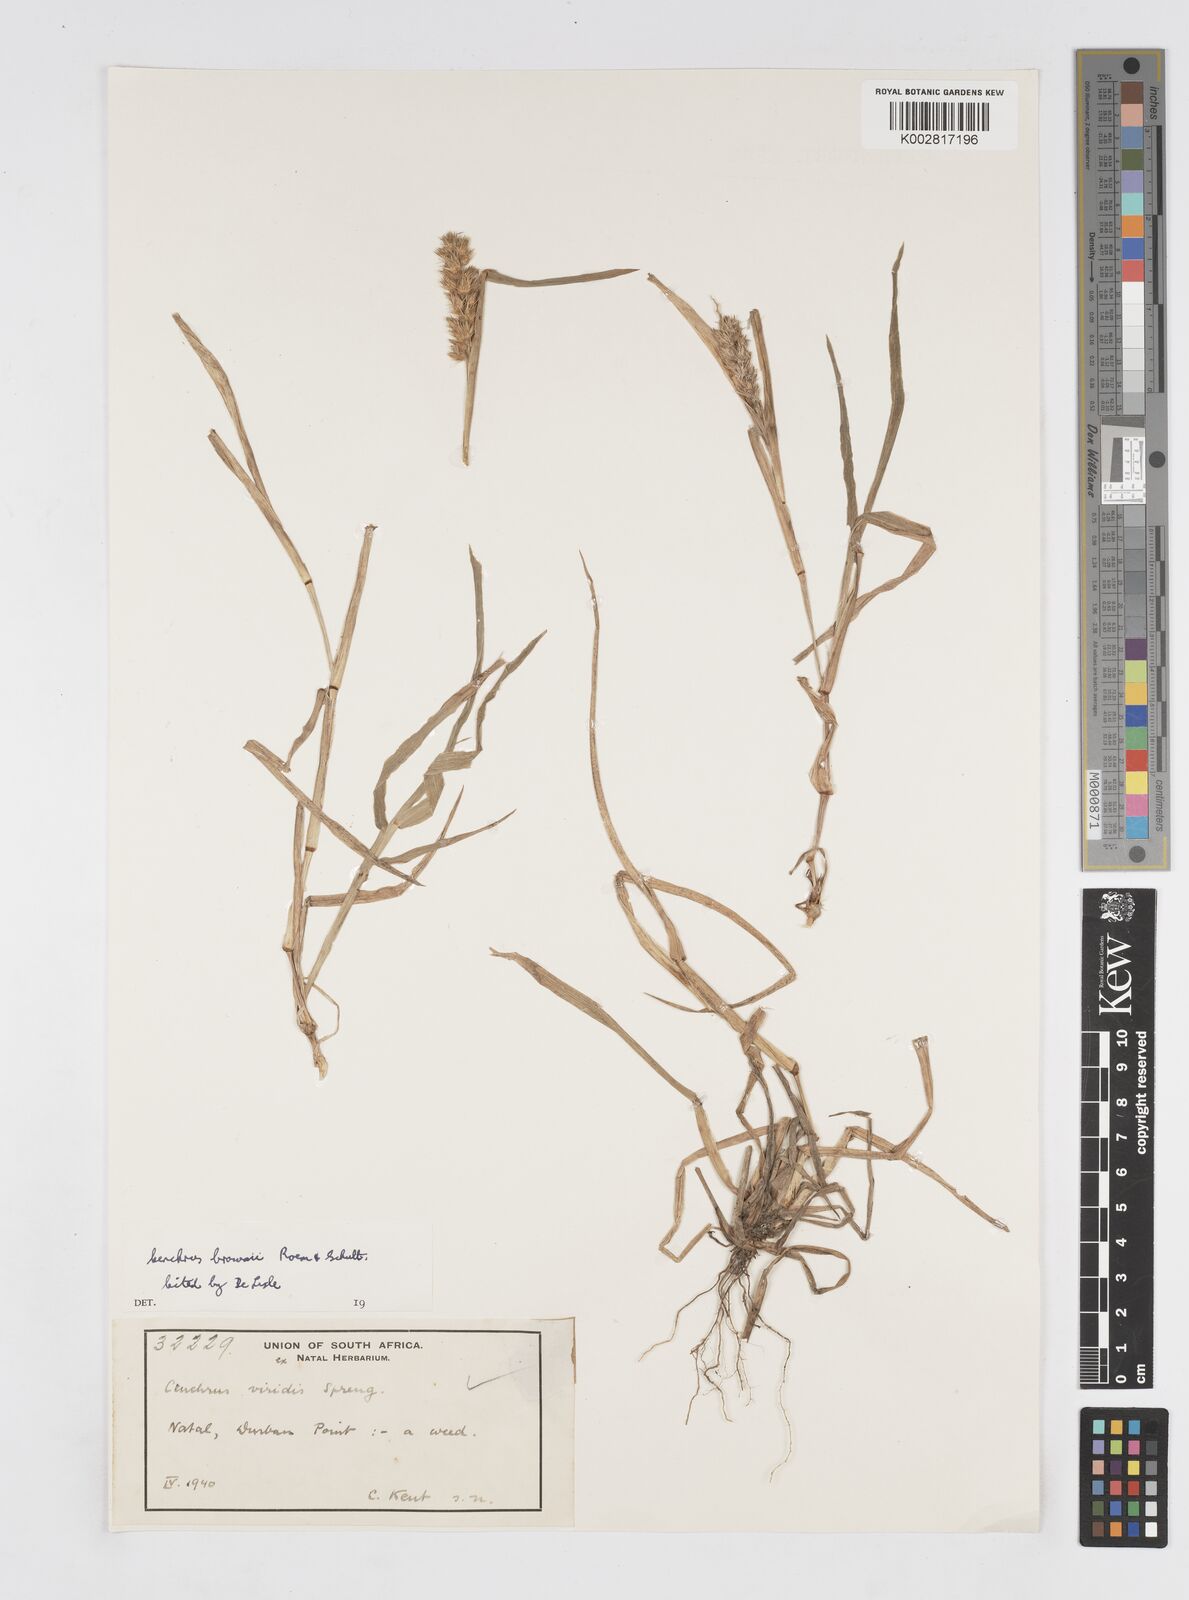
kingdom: Plantae
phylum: Tracheophyta
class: Liliopsida
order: Poales
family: Poaceae
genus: Cenchrus
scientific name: Cenchrus brownii
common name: Slim-bristle sandbur
